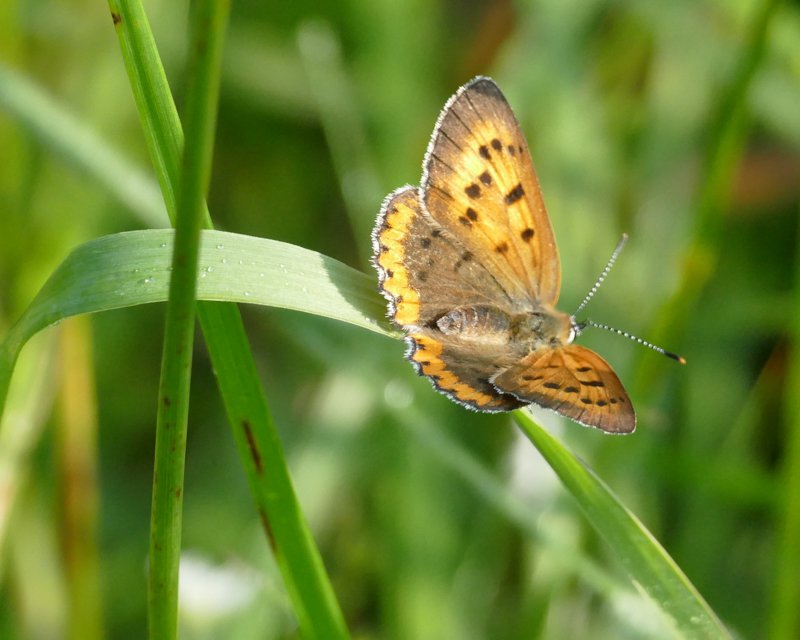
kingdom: Animalia
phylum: Arthropoda
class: Insecta
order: Lepidoptera
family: Sesiidae
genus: Sesia
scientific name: Sesia Lycaena hyllus
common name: Bronze Copper
